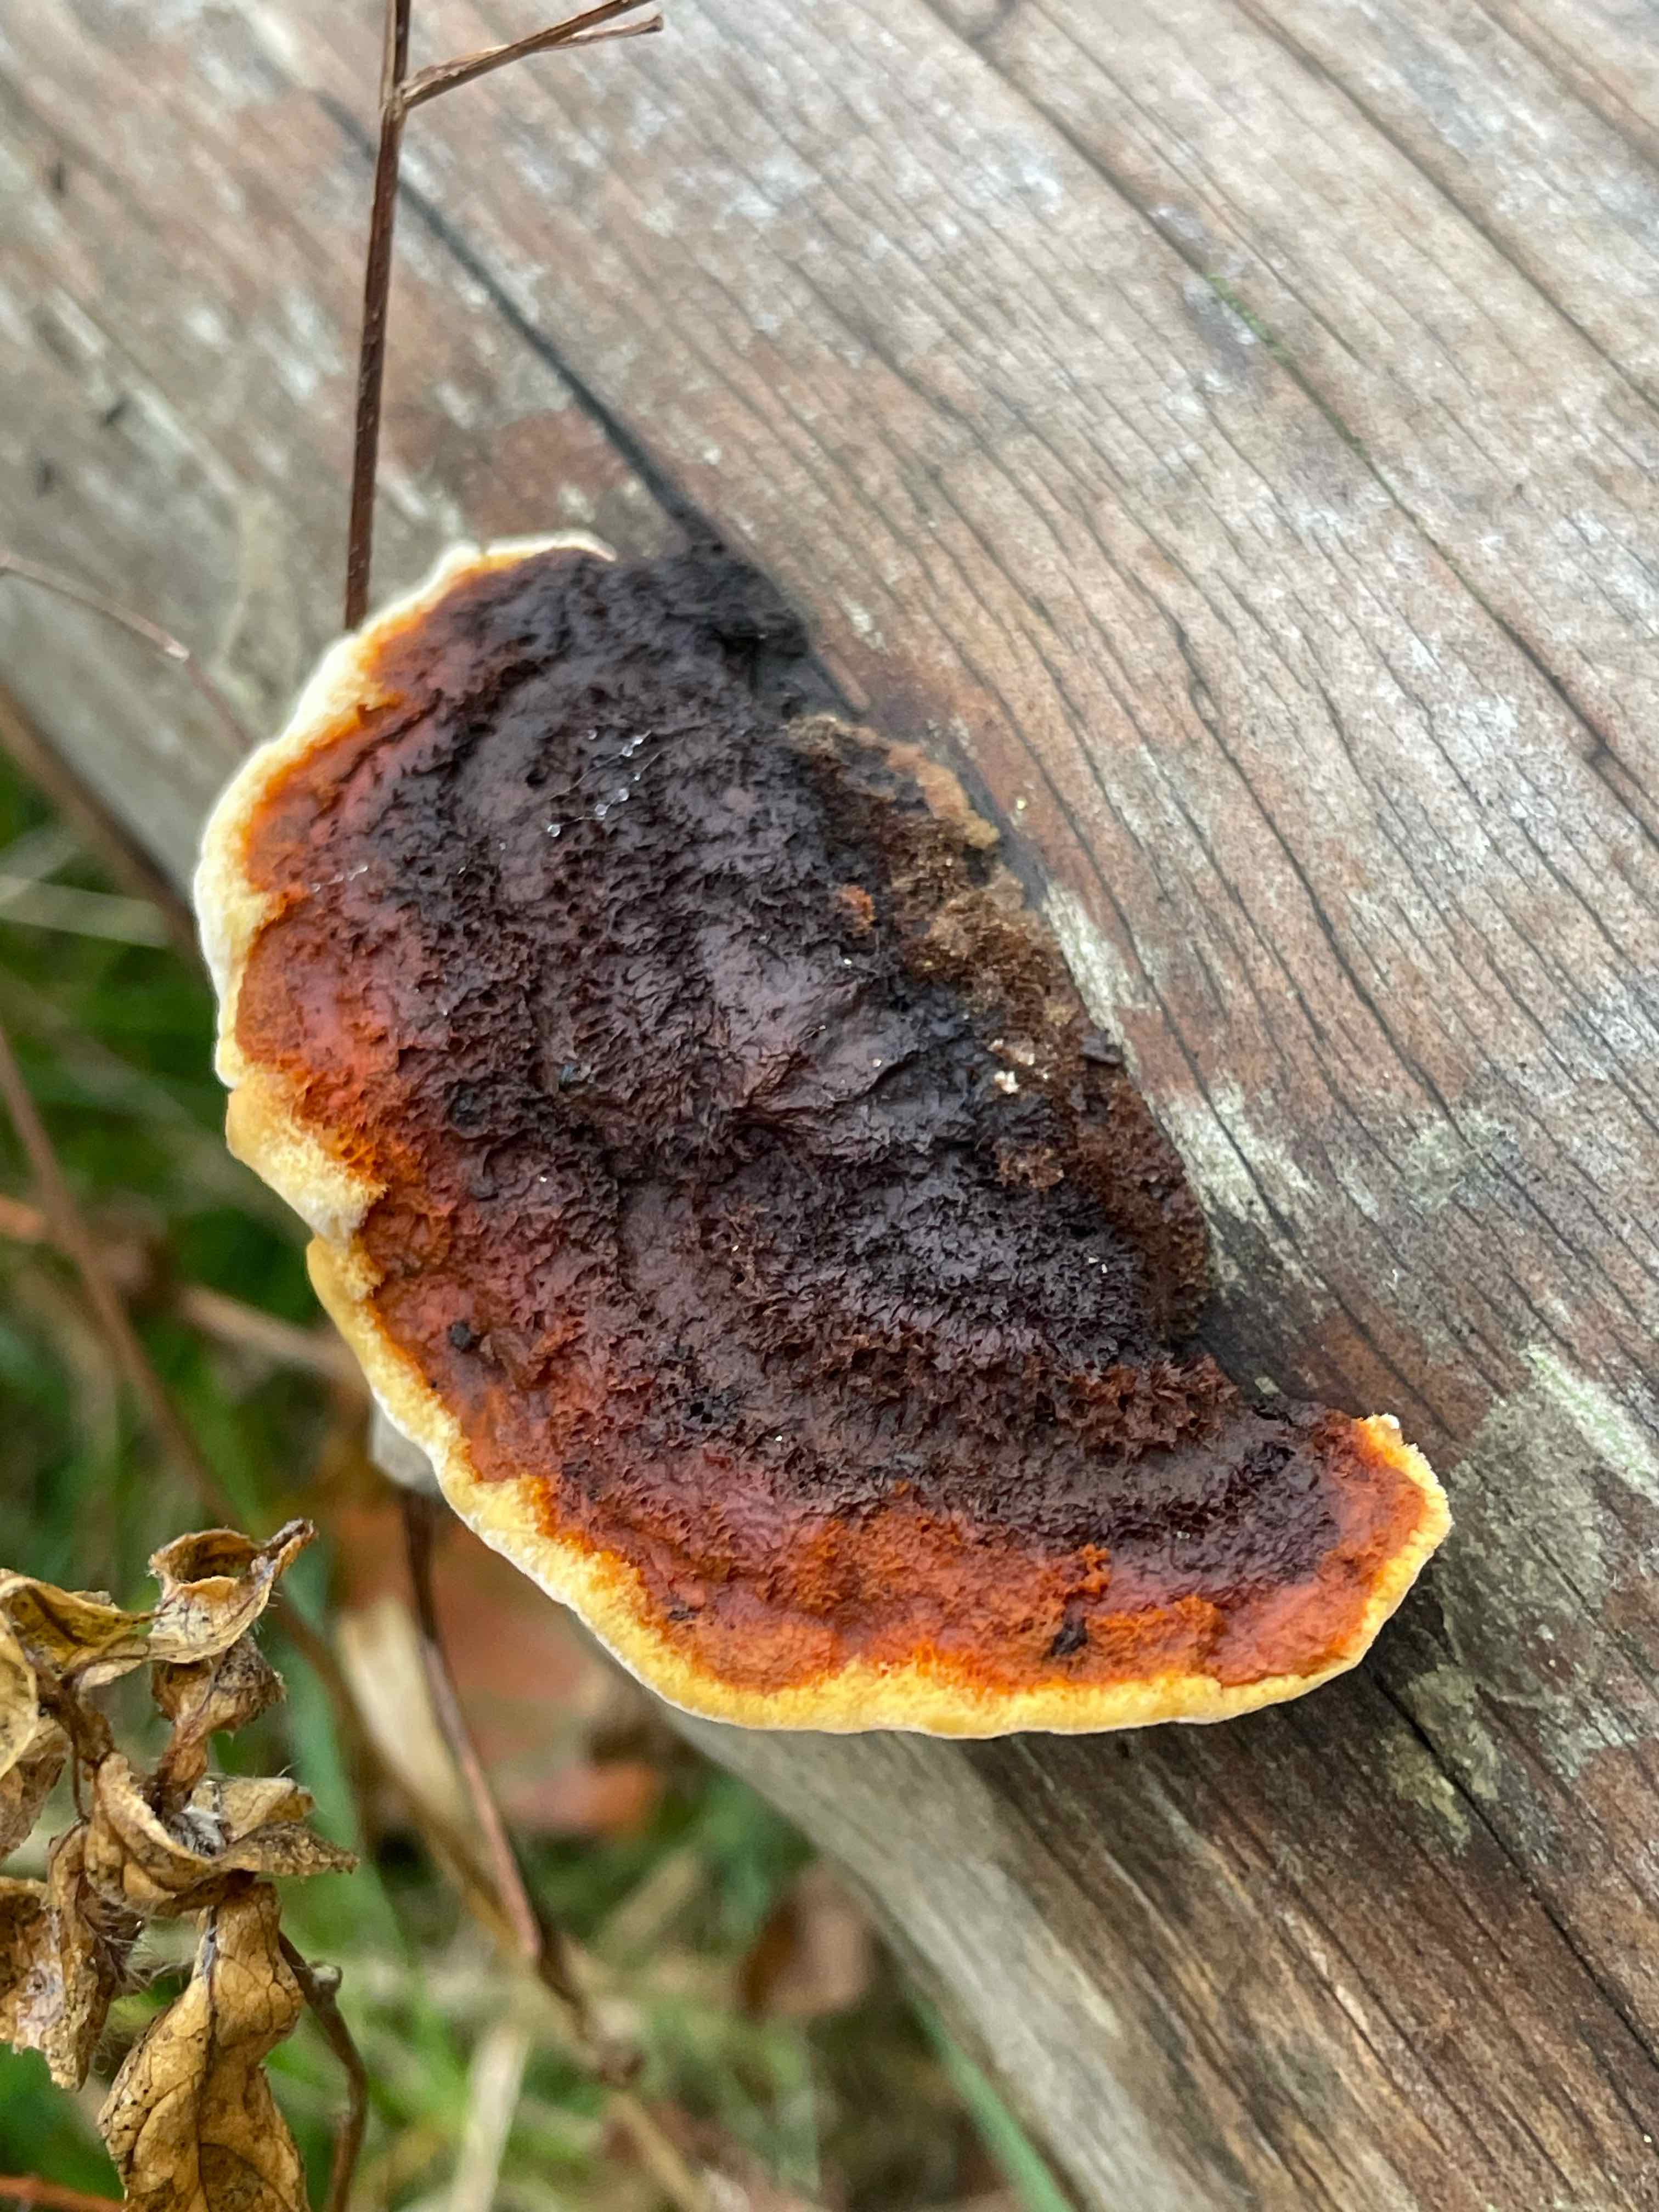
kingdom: Fungi
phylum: Basidiomycota
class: Agaricomycetes
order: Gloeophyllales
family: Gloeophyllaceae
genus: Gloeophyllum
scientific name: Gloeophyllum sepiarium
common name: fyrre-korkhat
